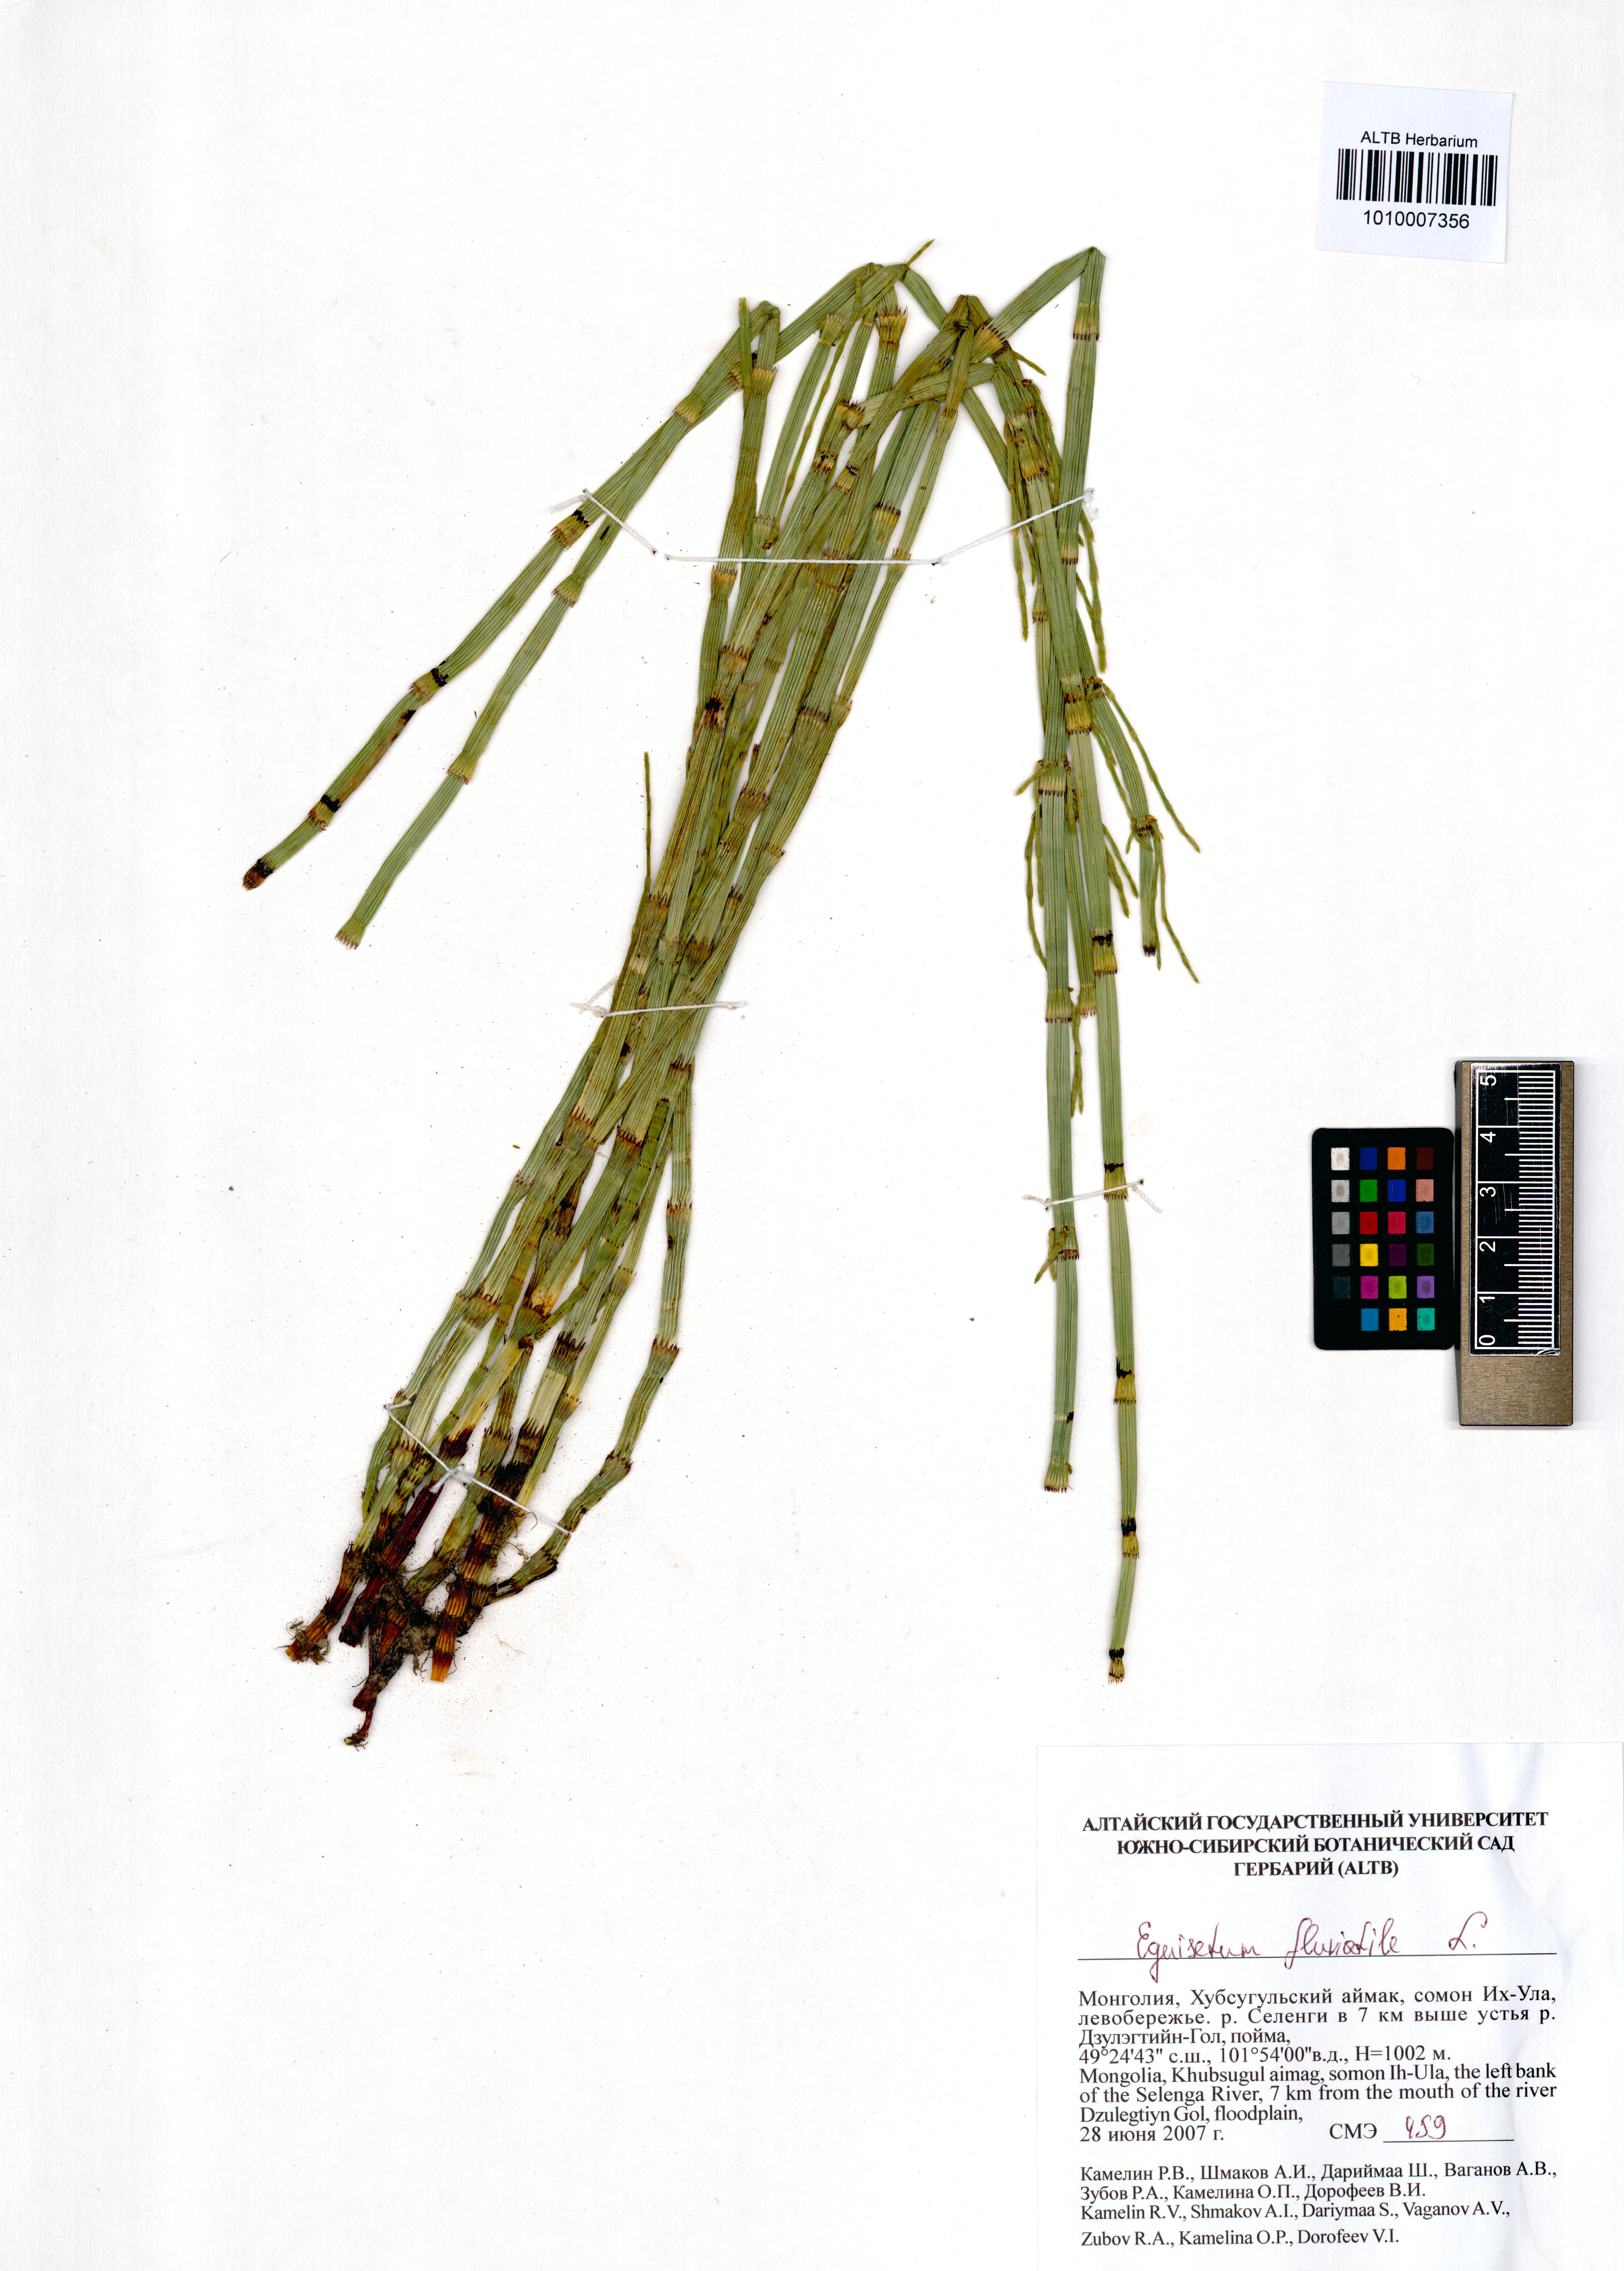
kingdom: Plantae
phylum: Tracheophyta
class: Polypodiopsida
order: Equisetales
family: Equisetaceae
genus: Equisetum
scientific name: Equisetum fluviatile
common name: Water horsetail
